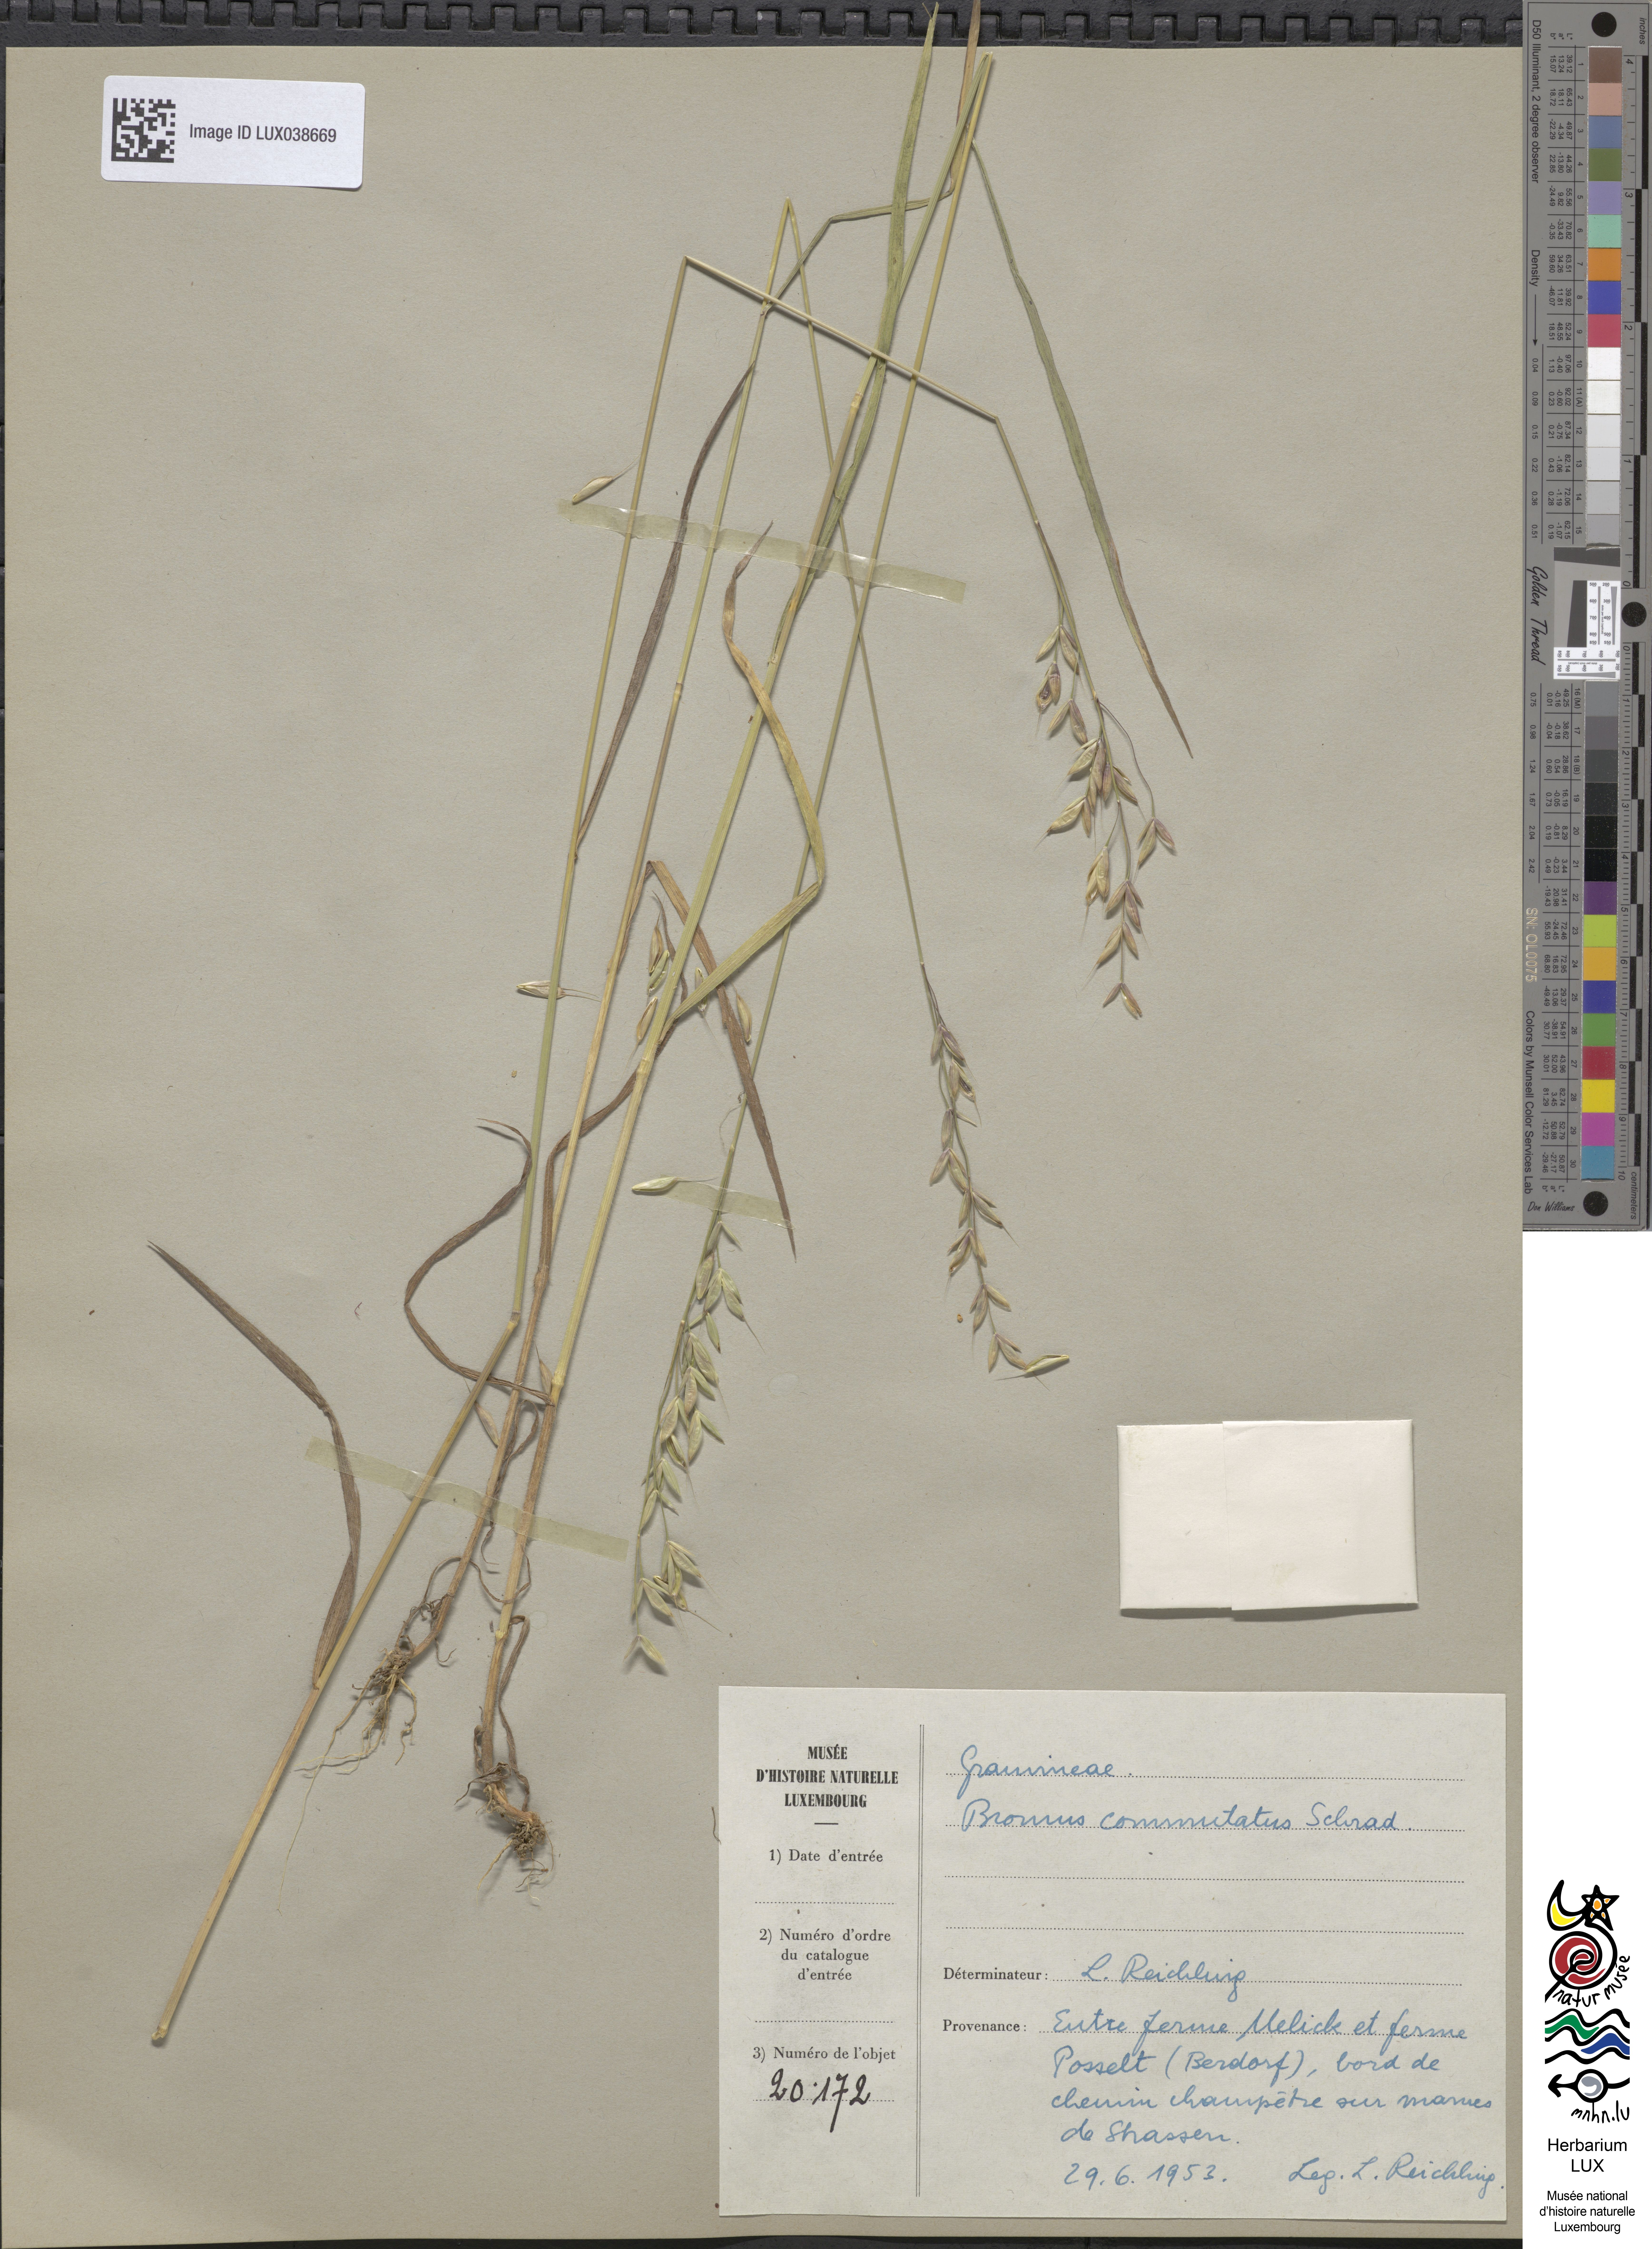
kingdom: Plantae
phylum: Tracheophyta
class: Liliopsida
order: Poales
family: Poaceae
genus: Bromus
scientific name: Bromus commutatus
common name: Meadow brome
